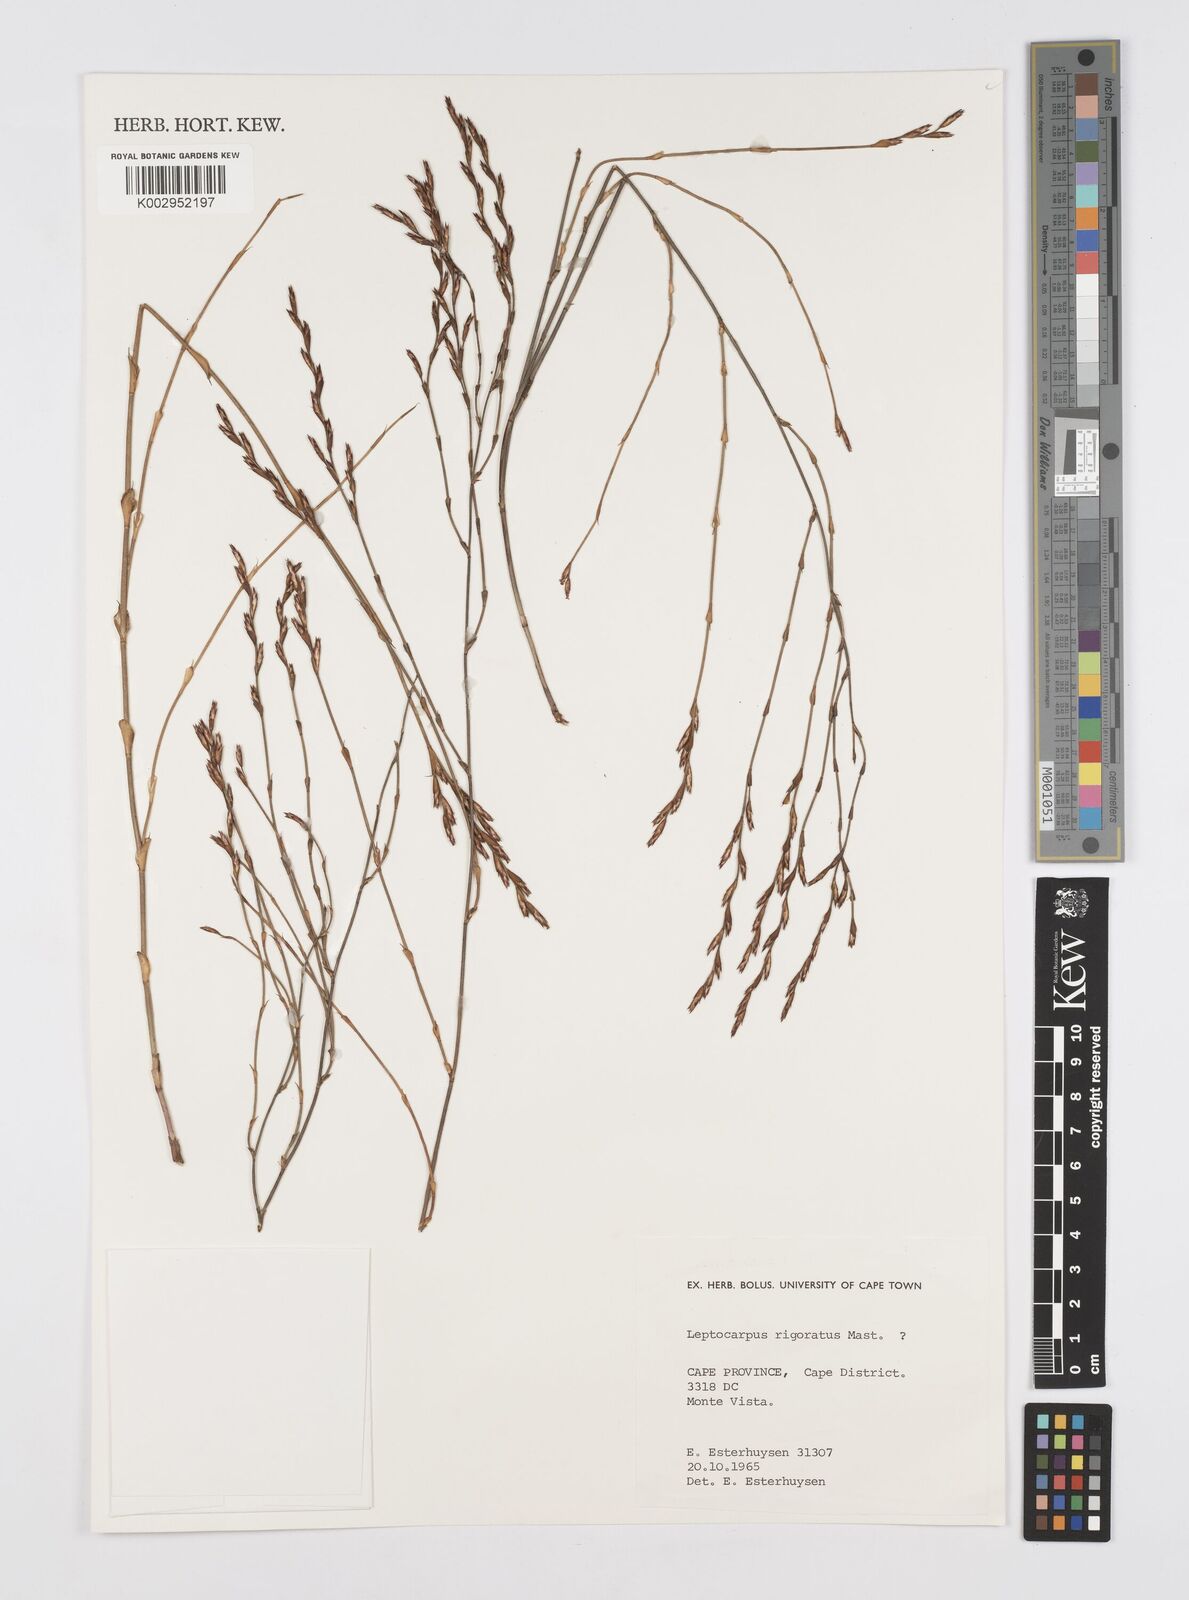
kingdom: Plantae
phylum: Tracheophyta
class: Liliopsida
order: Poales
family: Restionaceae
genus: Restio
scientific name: Restio rigoratus
